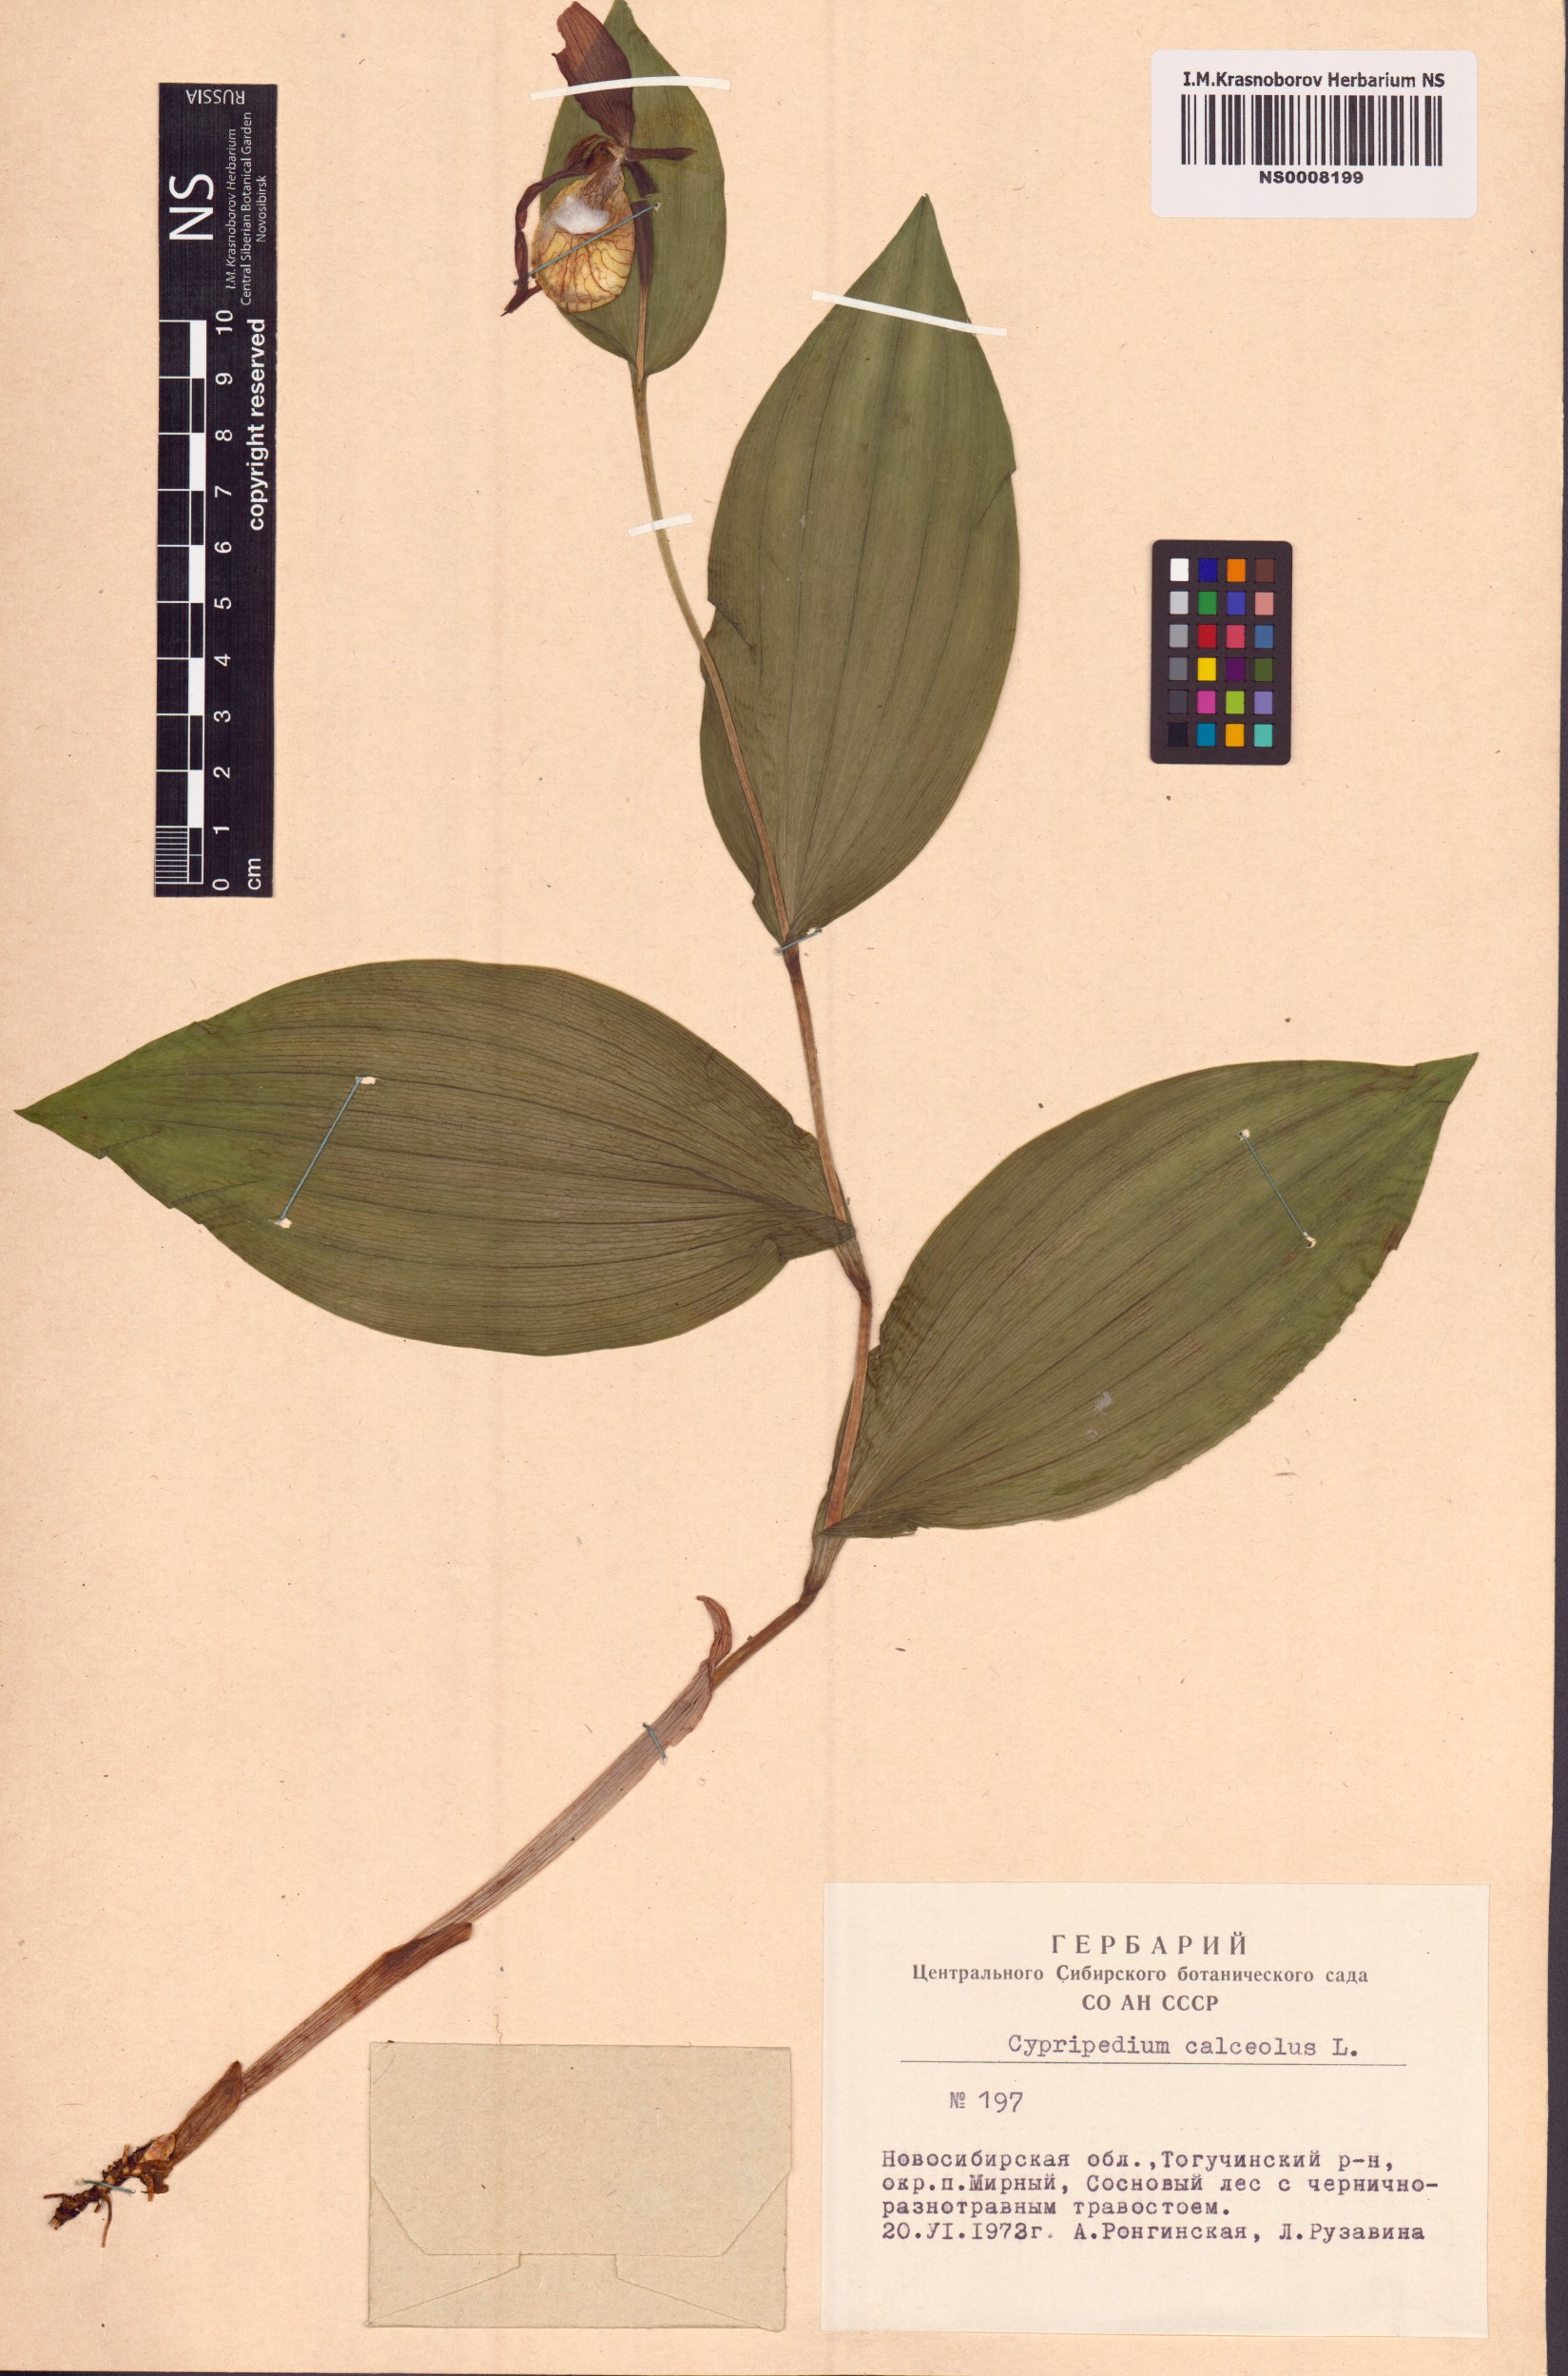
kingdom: Plantae
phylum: Tracheophyta
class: Liliopsida
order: Asparagales
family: Orchidaceae
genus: Cypripedium
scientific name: Cypripedium calceolus
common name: Lady's-slipper
